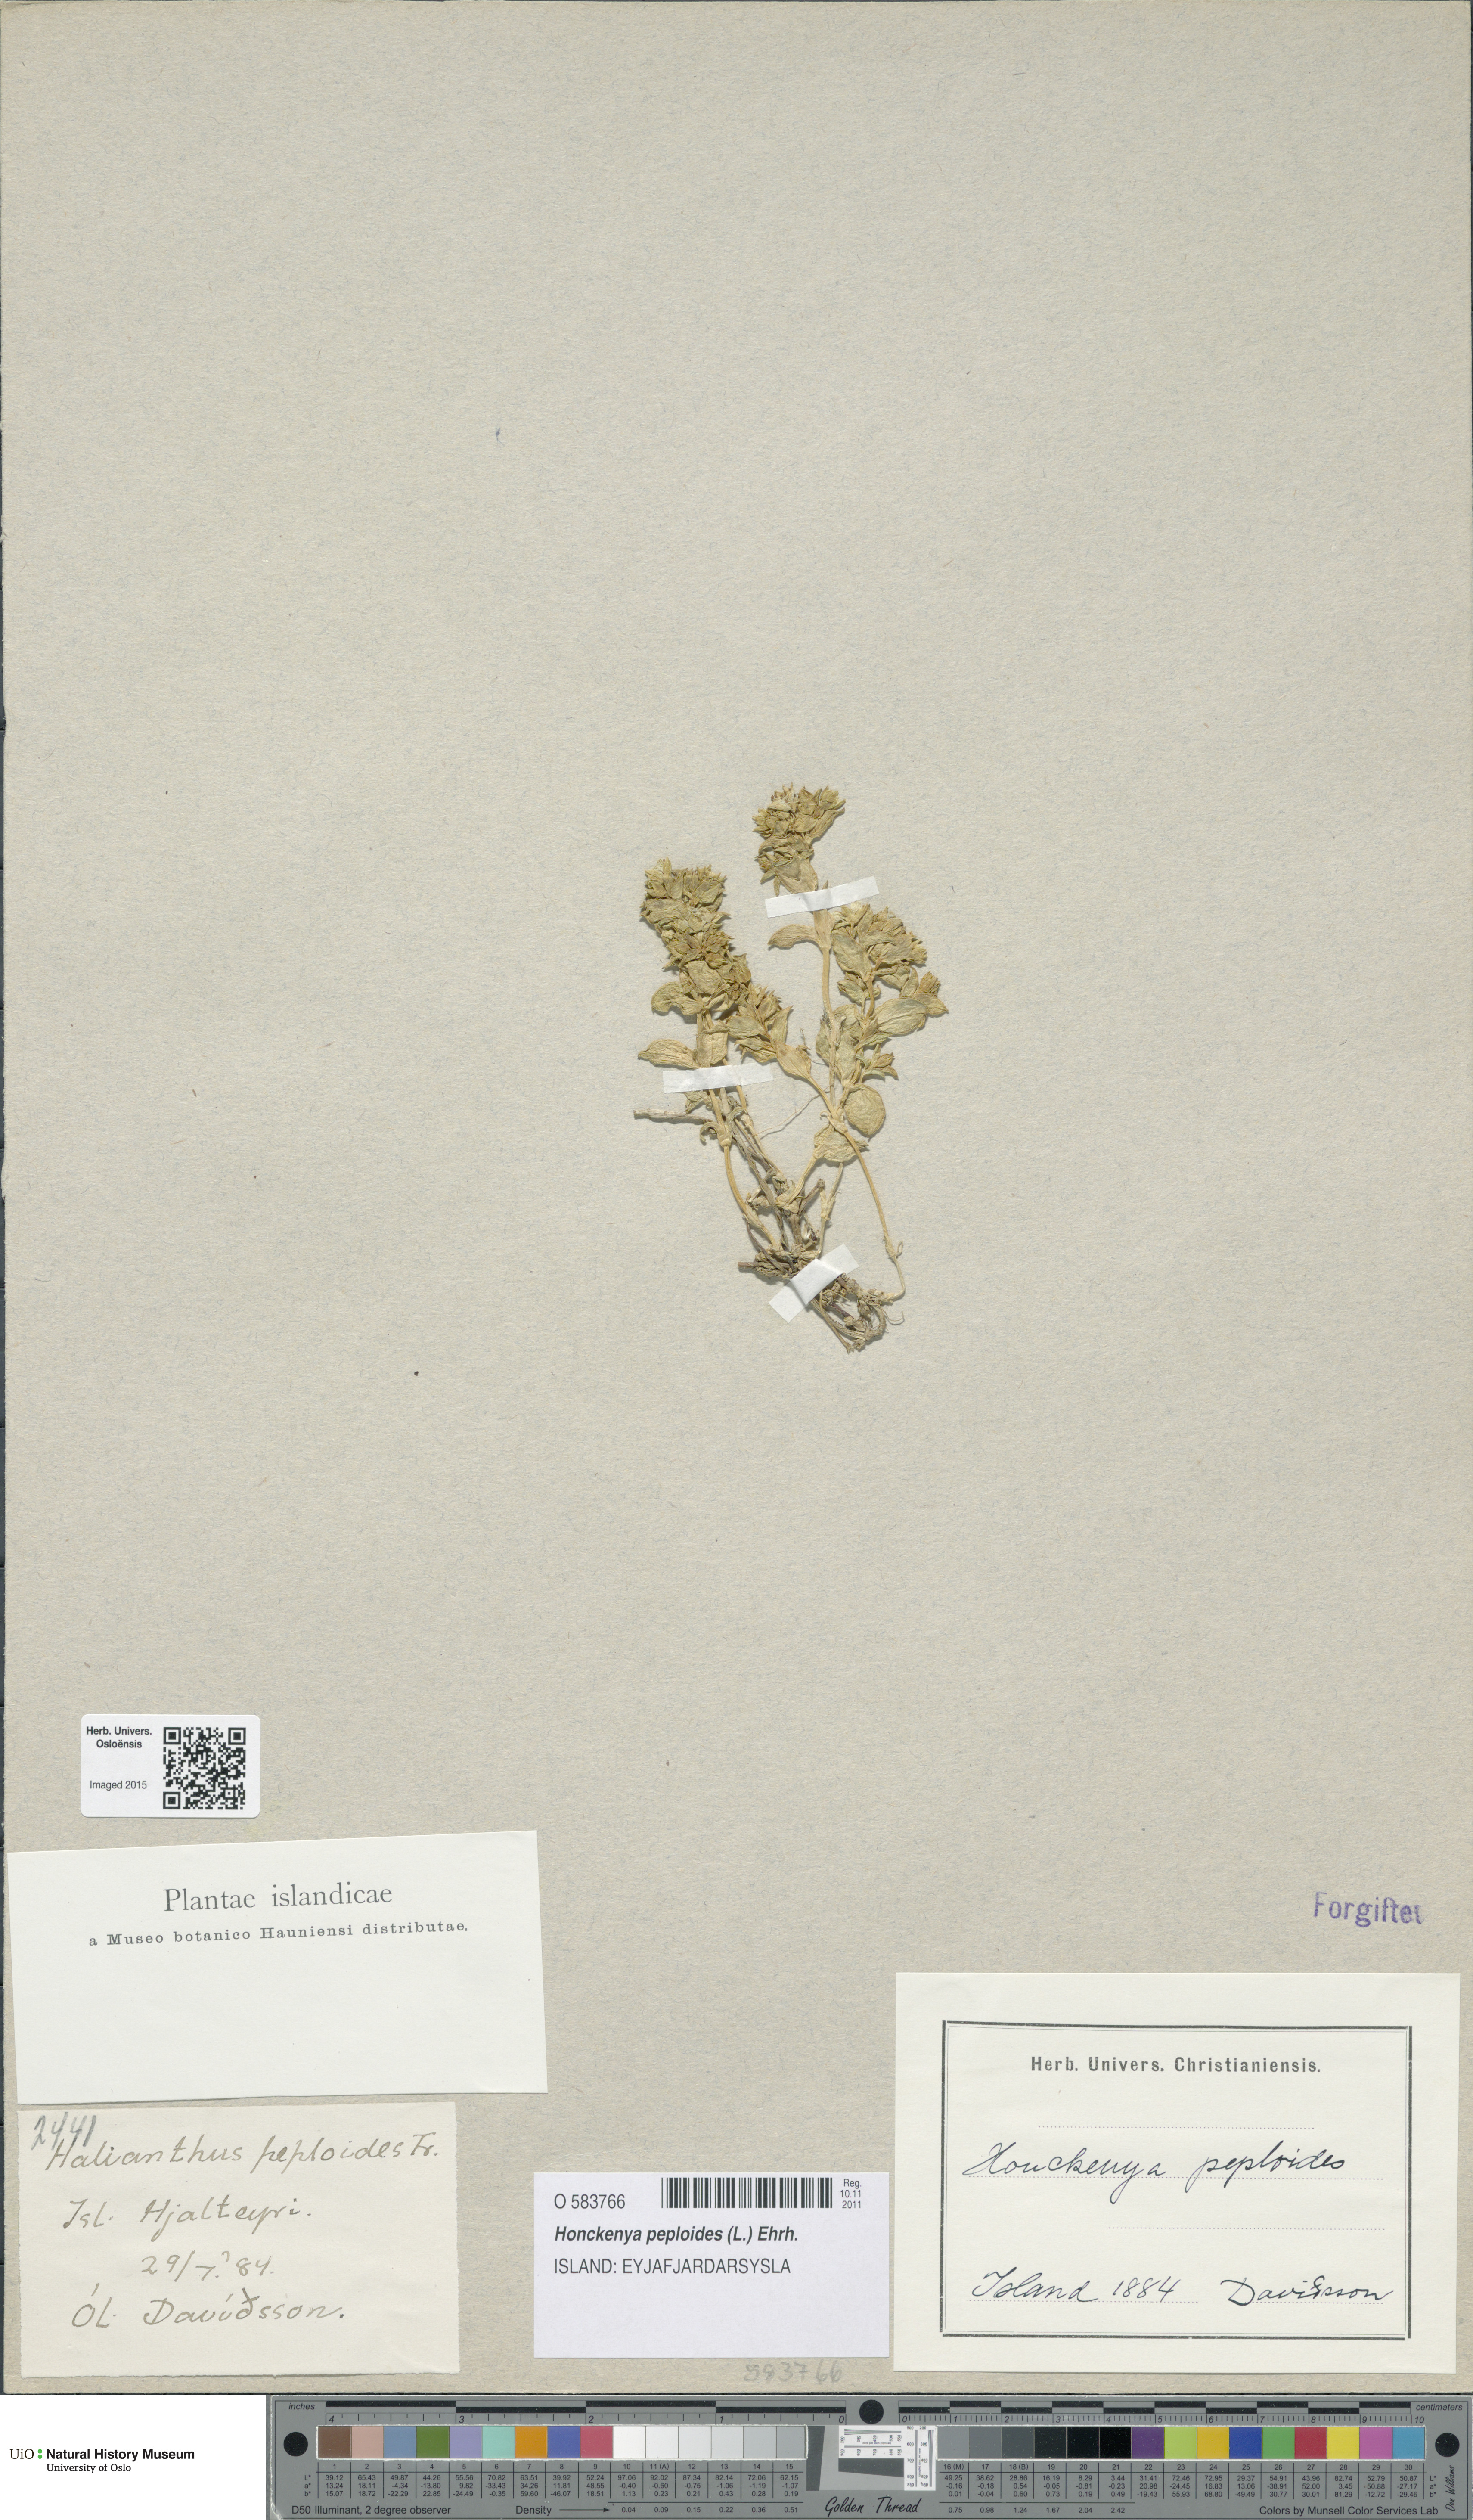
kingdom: Plantae
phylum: Tracheophyta
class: Magnoliopsida
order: Caryophyllales
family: Caryophyllaceae
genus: Honckenya
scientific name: Honckenya peploides
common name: Sea sandwort
